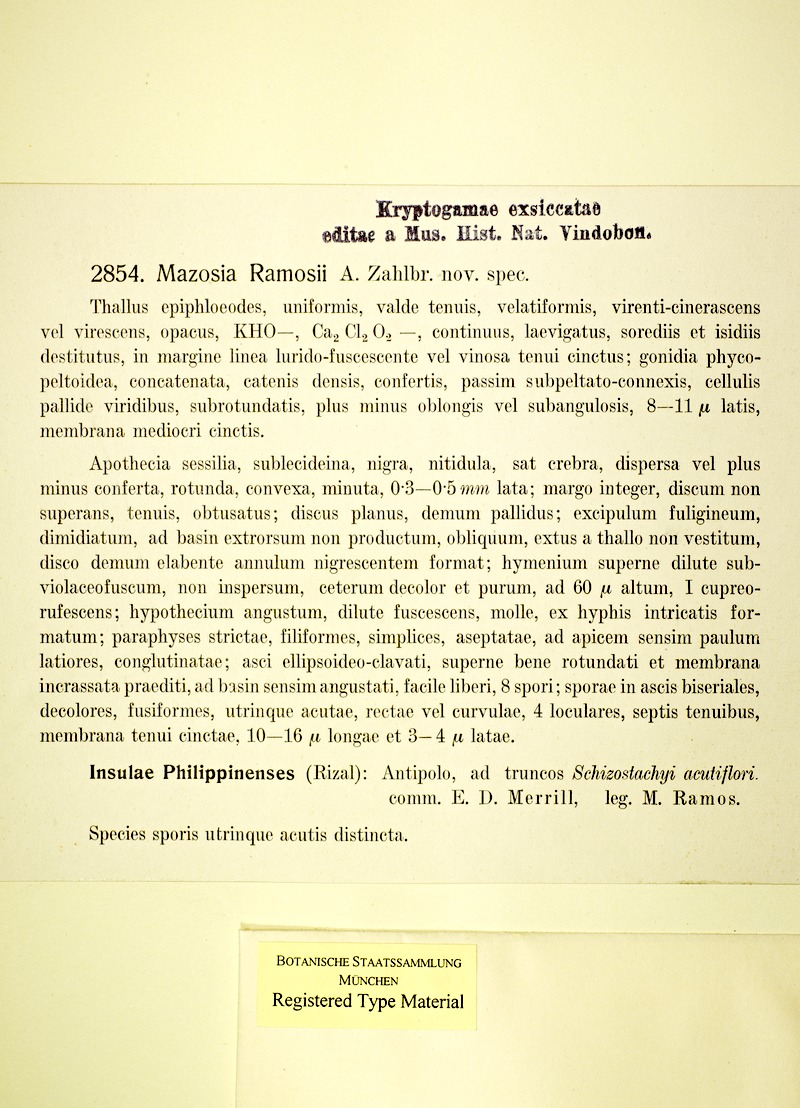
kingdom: Fungi
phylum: Ascomycota
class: Arthoniomycetes
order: Arthoniales
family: Roccellaceae
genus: Mazosia
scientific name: Mazosia ramosii
